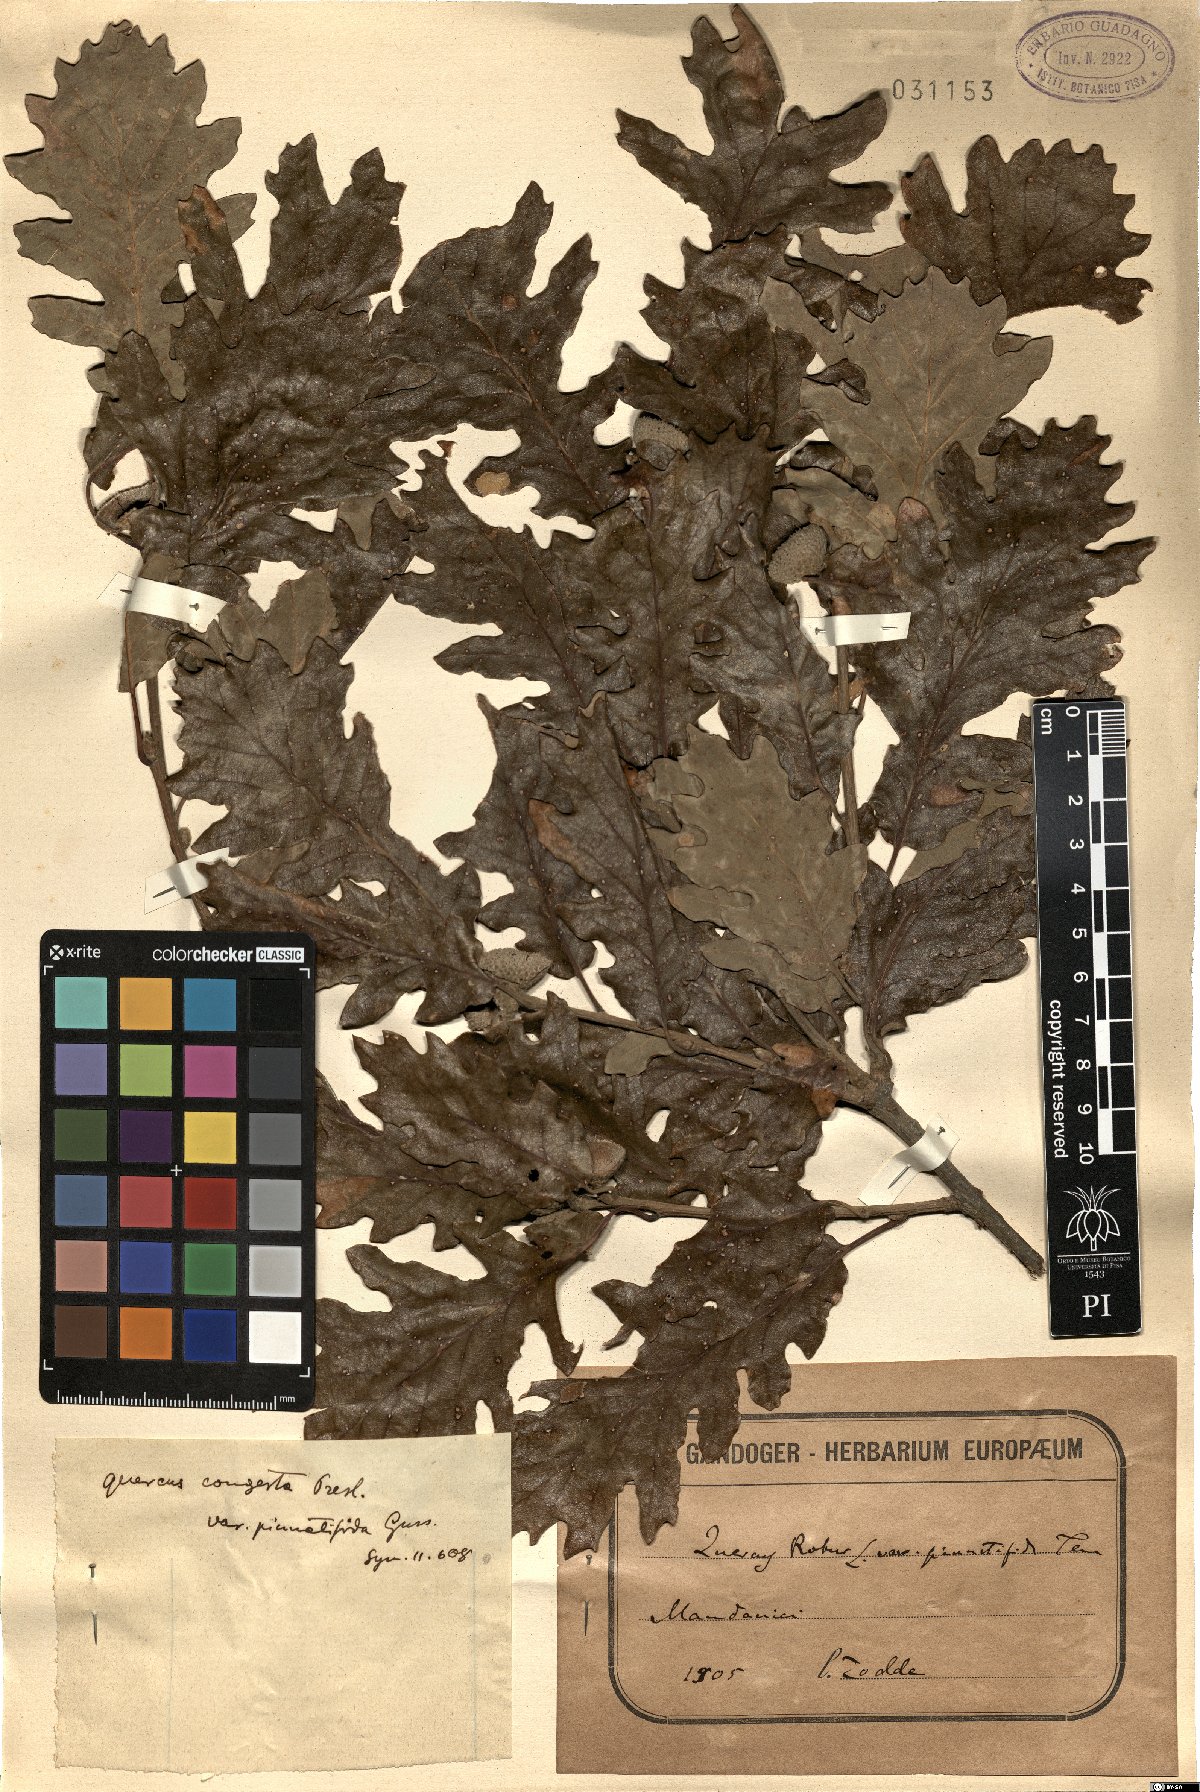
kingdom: Plantae
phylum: Tracheophyta
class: Magnoliopsida
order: Fagales
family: Fagaceae
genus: Quercus
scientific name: Quercus congesta
